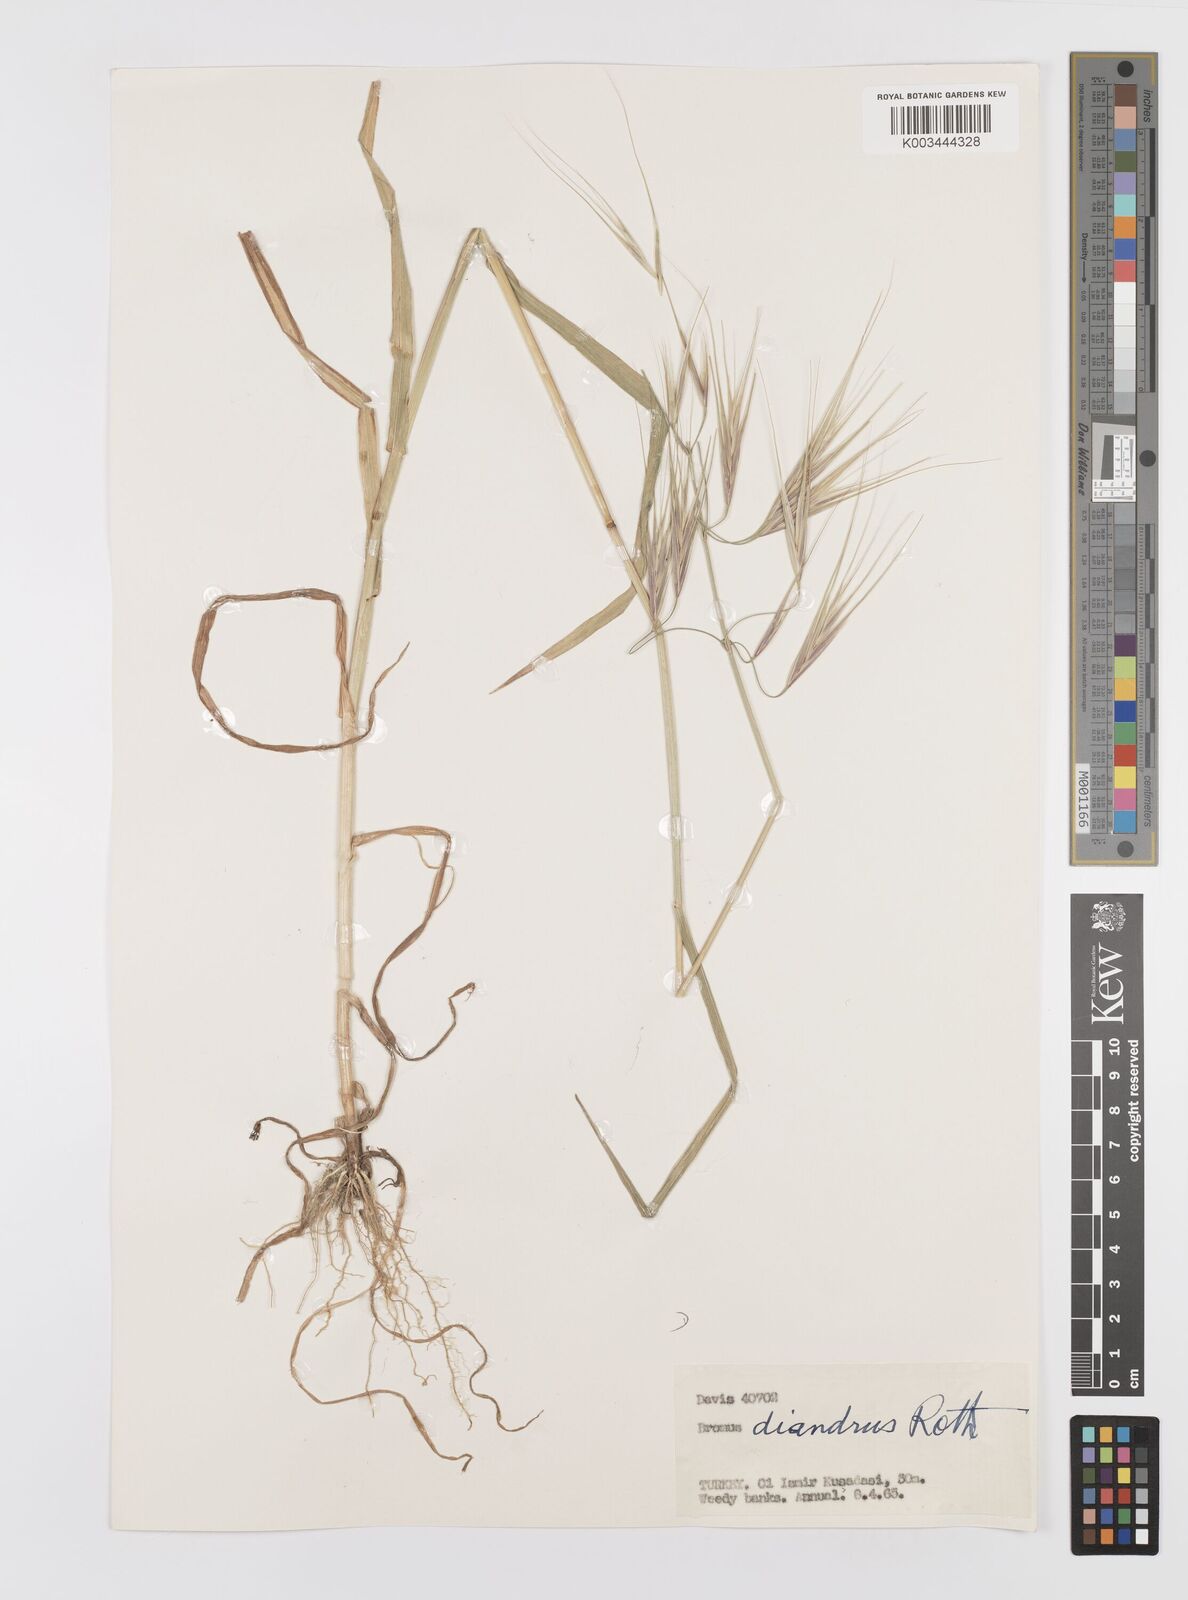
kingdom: Plantae
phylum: Tracheophyta
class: Liliopsida
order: Poales
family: Poaceae
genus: Bromus
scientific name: Bromus diandrus
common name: Ripgut brome
